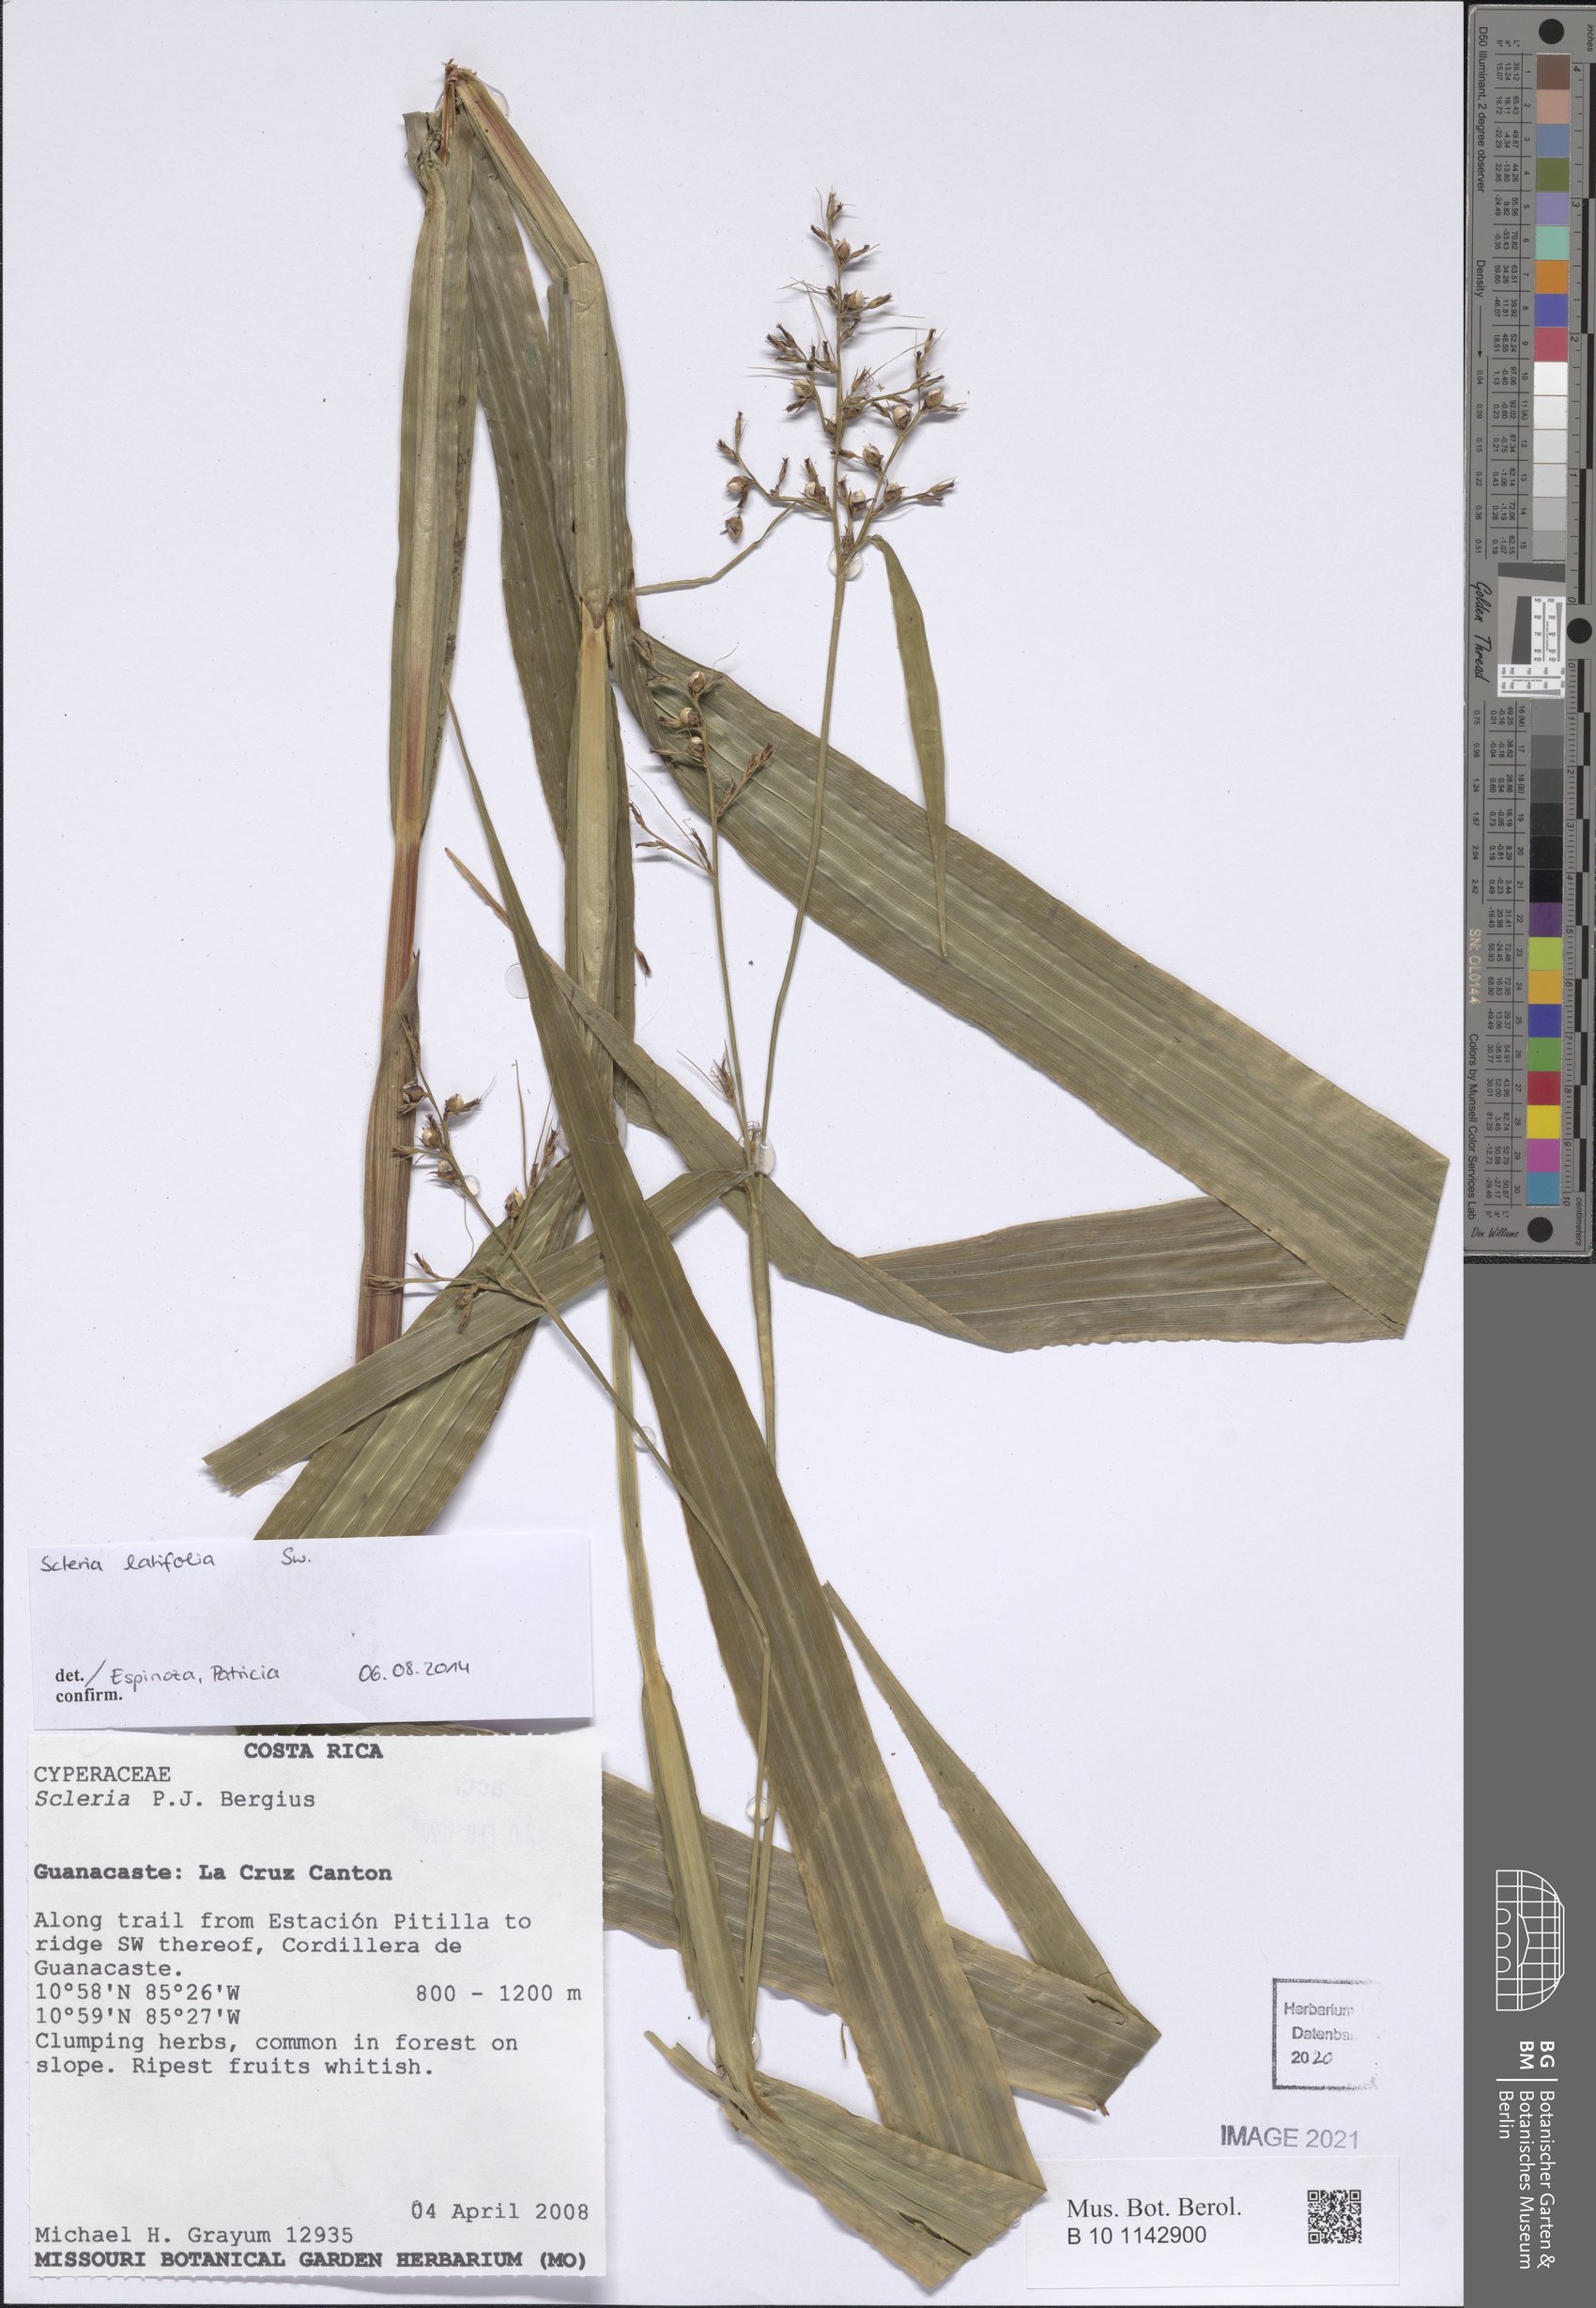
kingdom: Plantae
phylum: Tracheophyta
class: Liliopsida
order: Poales
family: Cyperaceae
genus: Scleria
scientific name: Scleria latifolia
